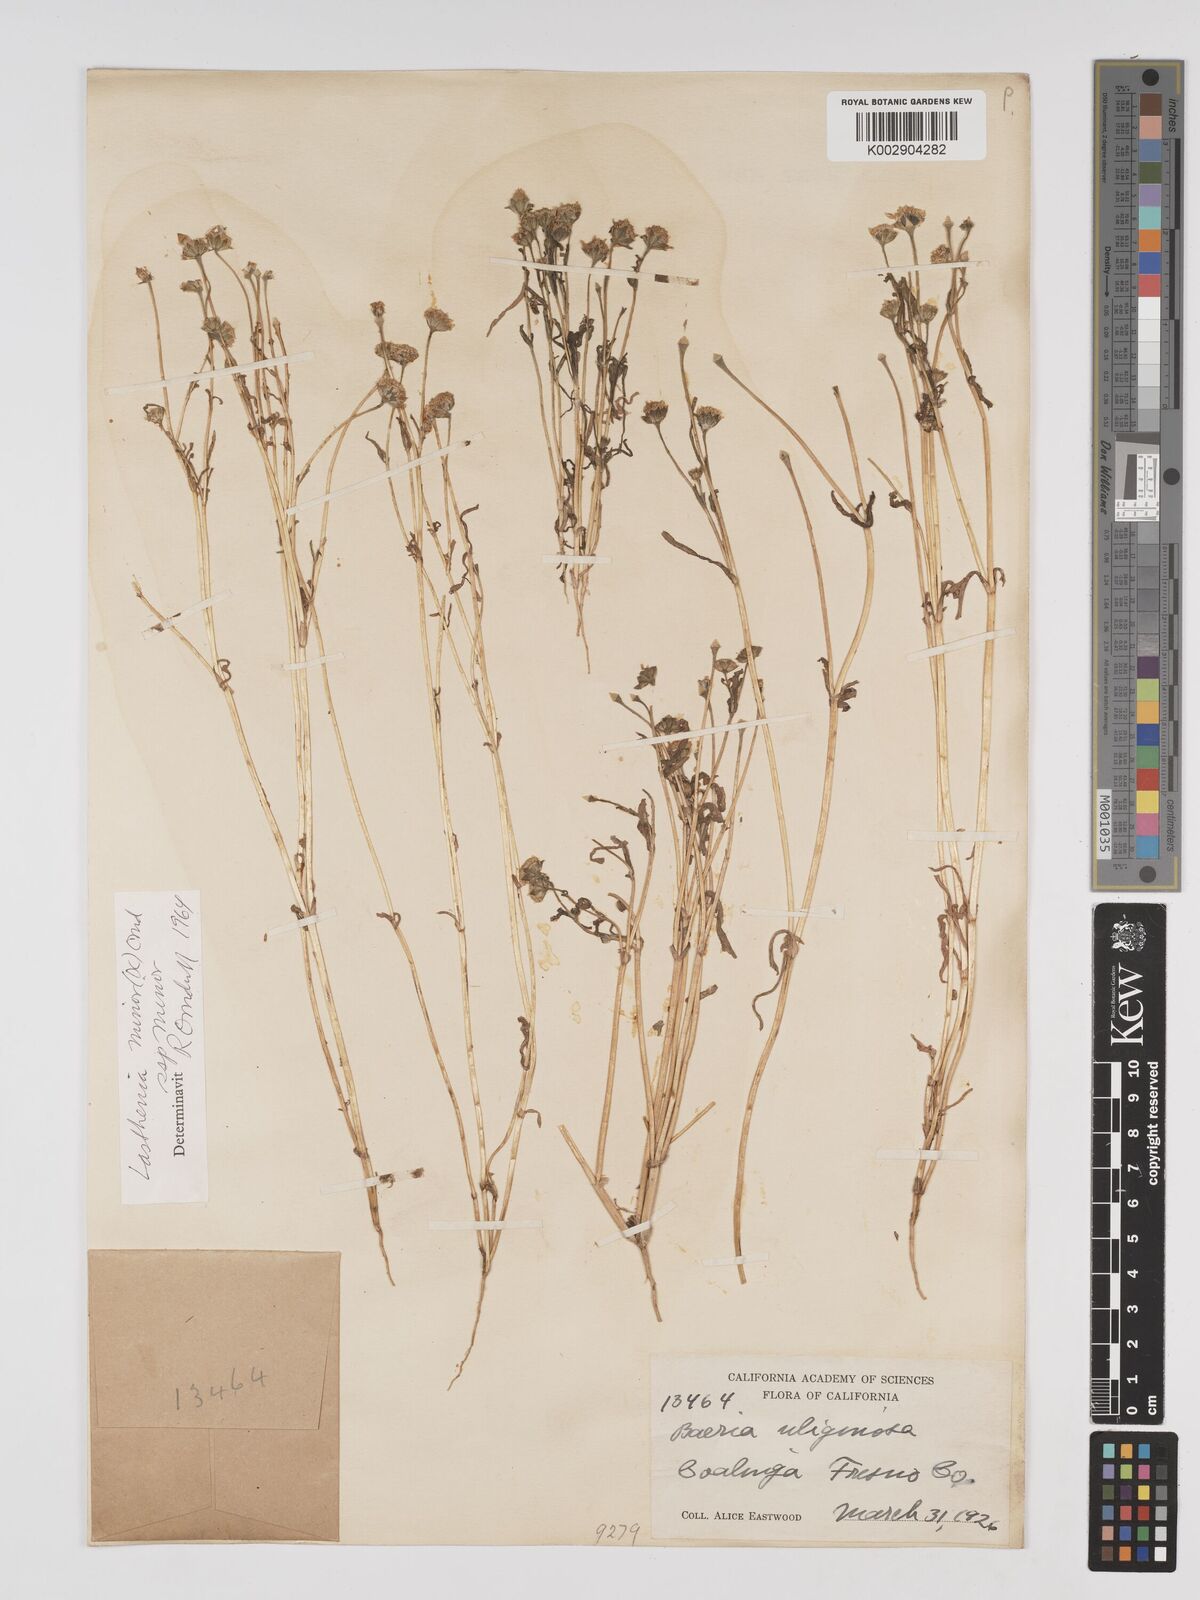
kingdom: Plantae
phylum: Tracheophyta
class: Magnoliopsida
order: Asterales
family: Asteraceae
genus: Lasthenia
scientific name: Lasthenia minor
